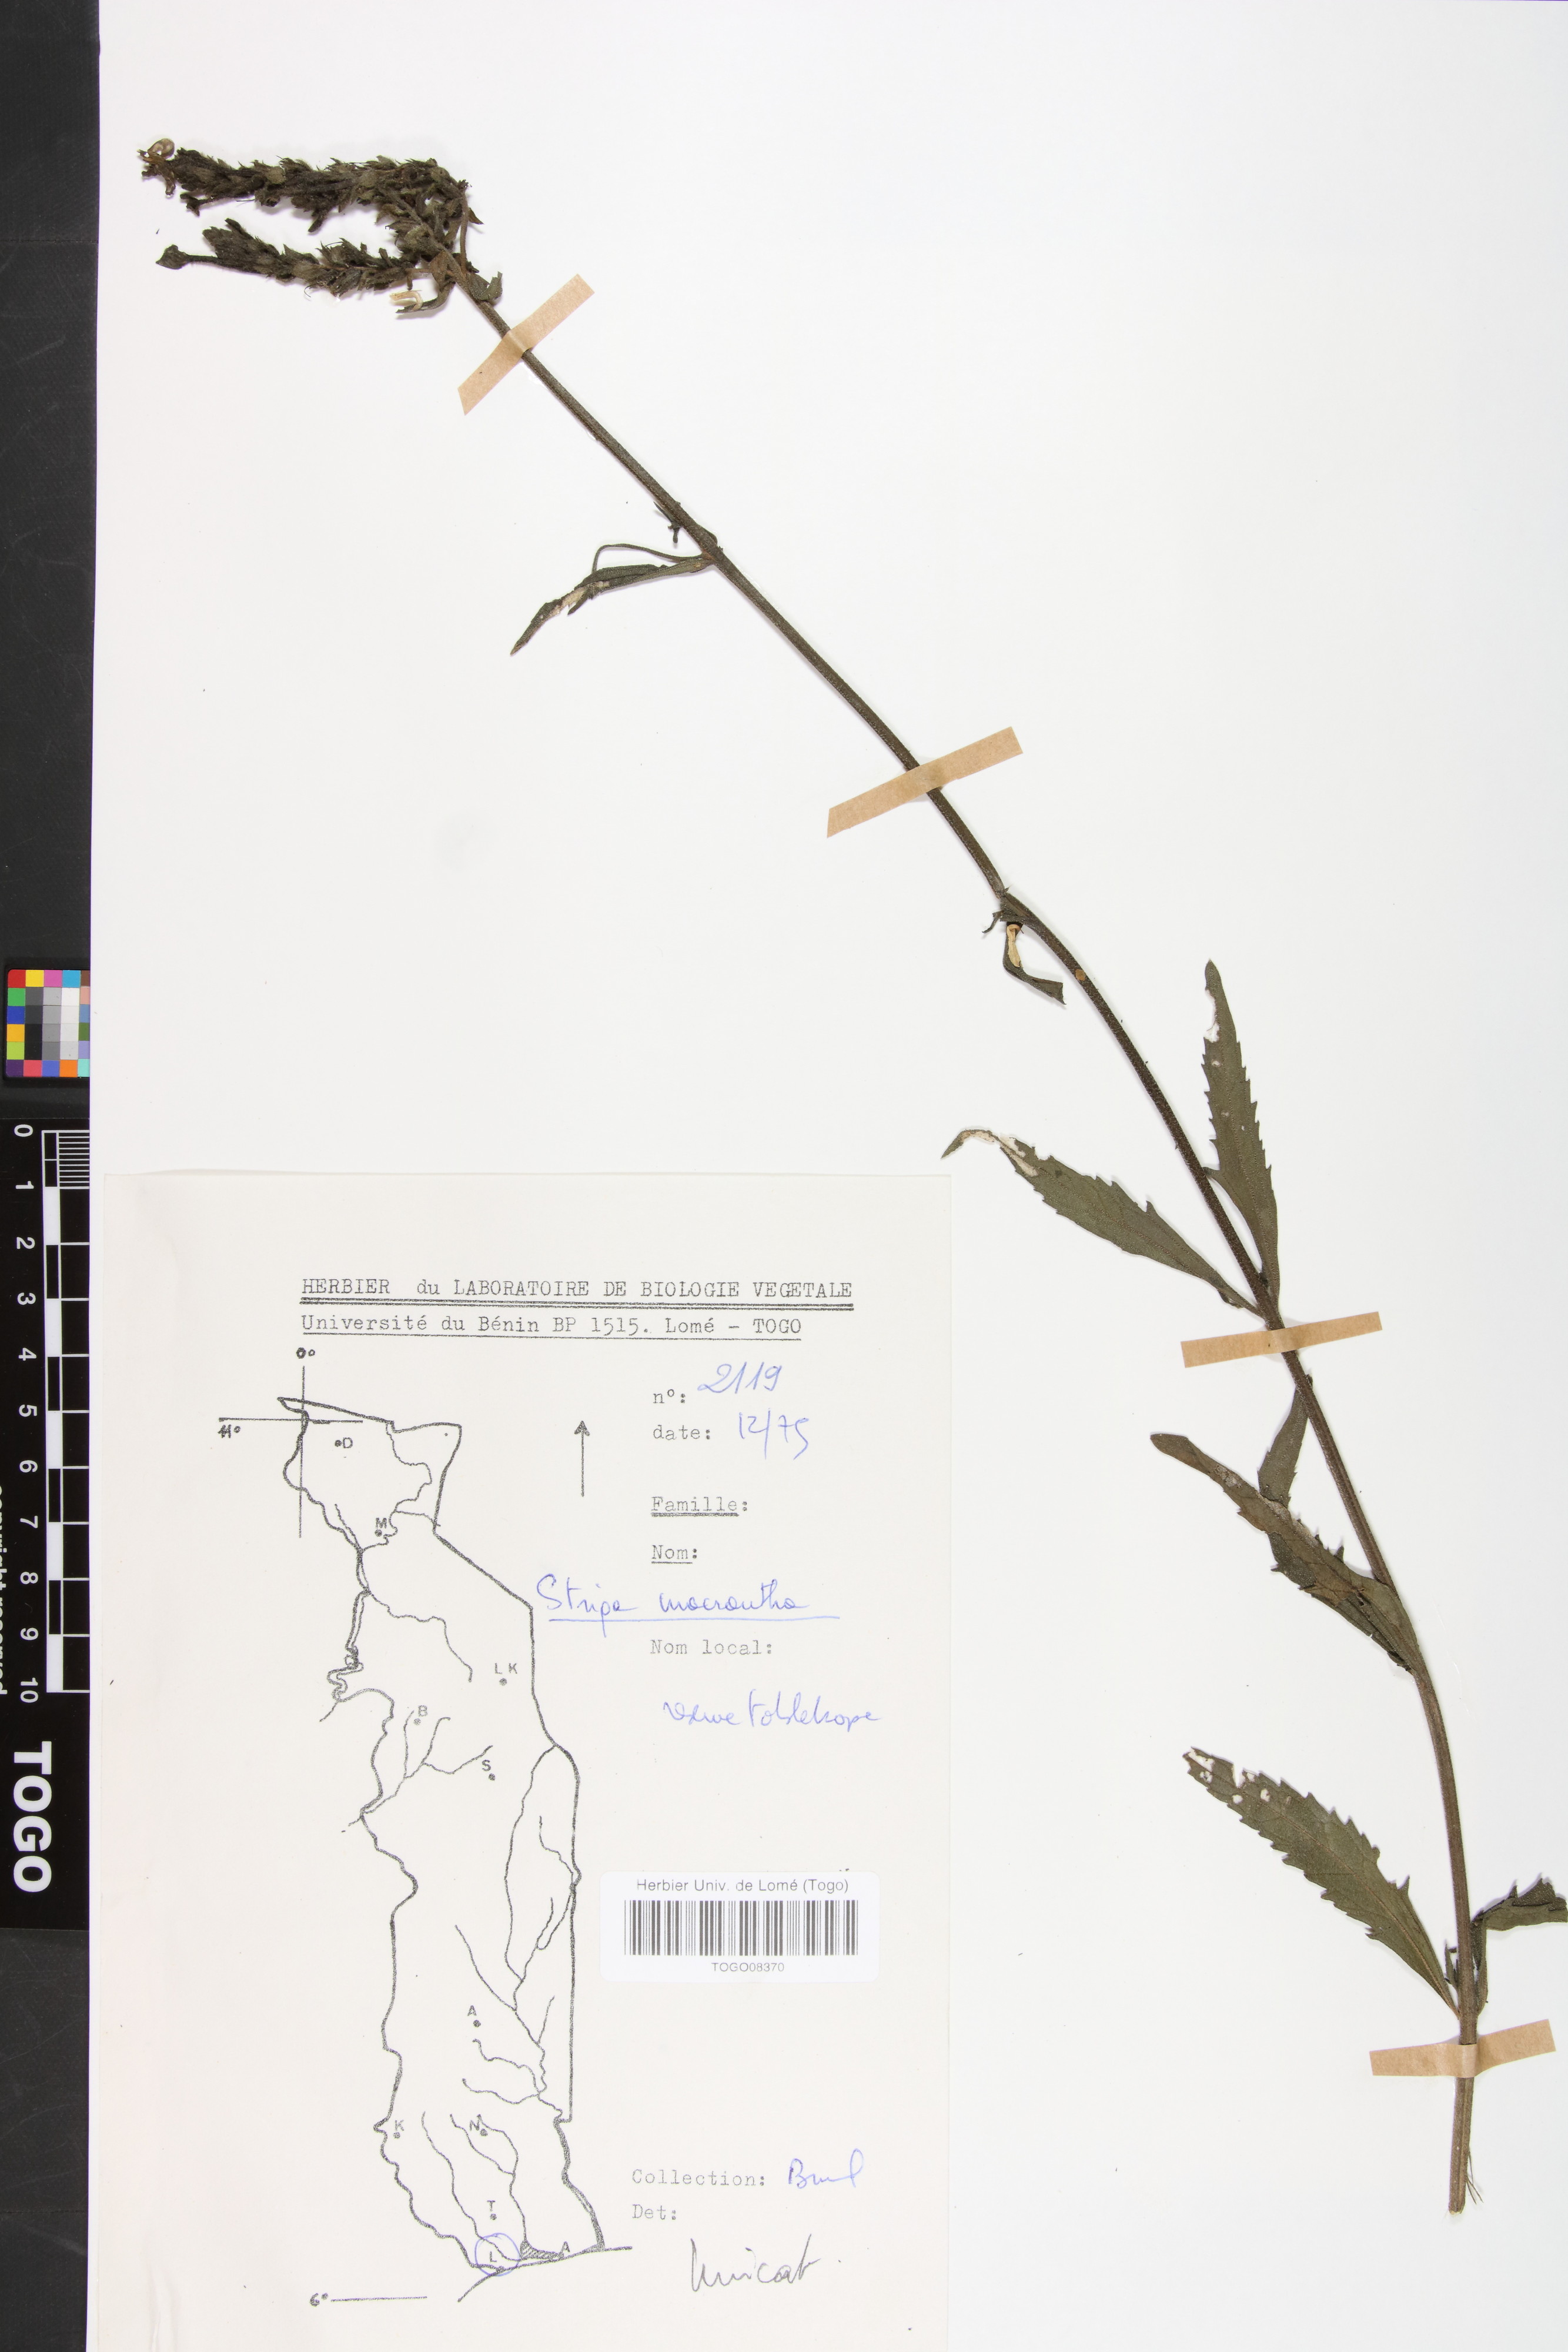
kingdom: Plantae
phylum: Tracheophyta
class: Magnoliopsida
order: Lamiales
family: Orobanchaceae
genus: Striga
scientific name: Striga macrantha
